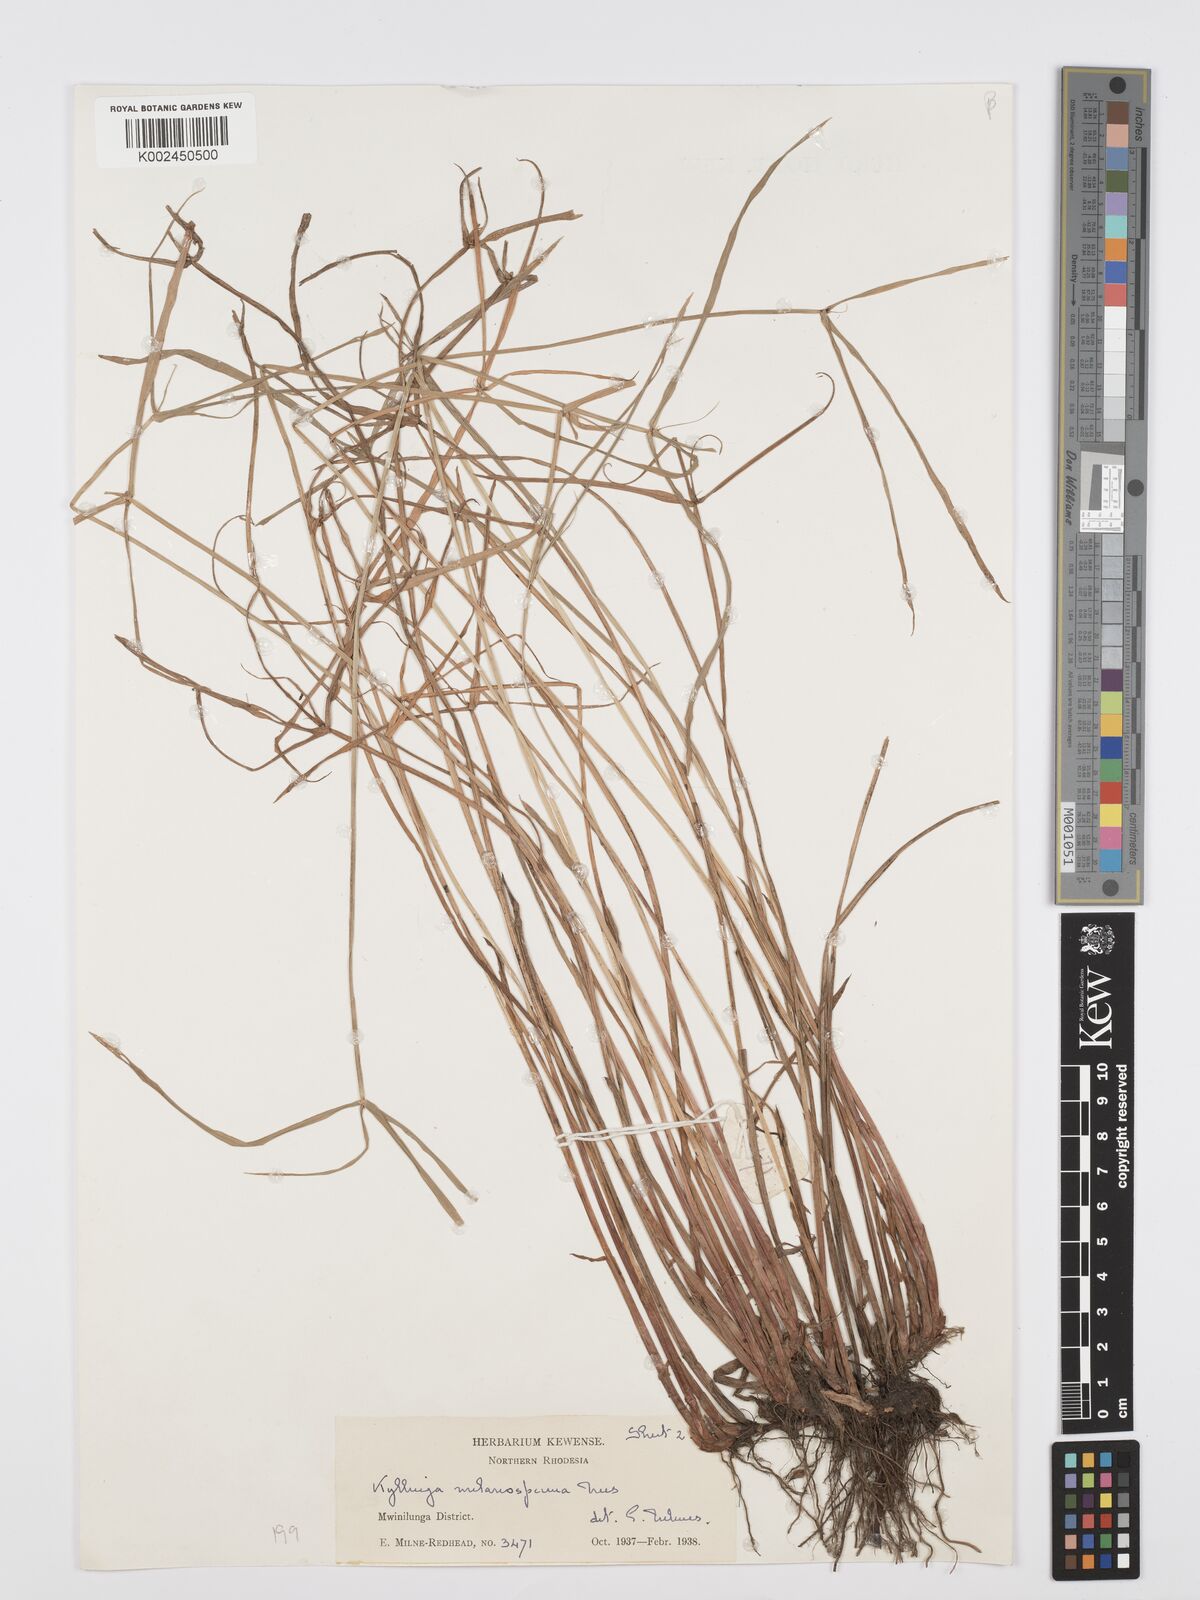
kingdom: Plantae
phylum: Tracheophyta
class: Liliopsida
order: Poales
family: Cyperaceae
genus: Cyperus
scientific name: Cyperus melanospermus
